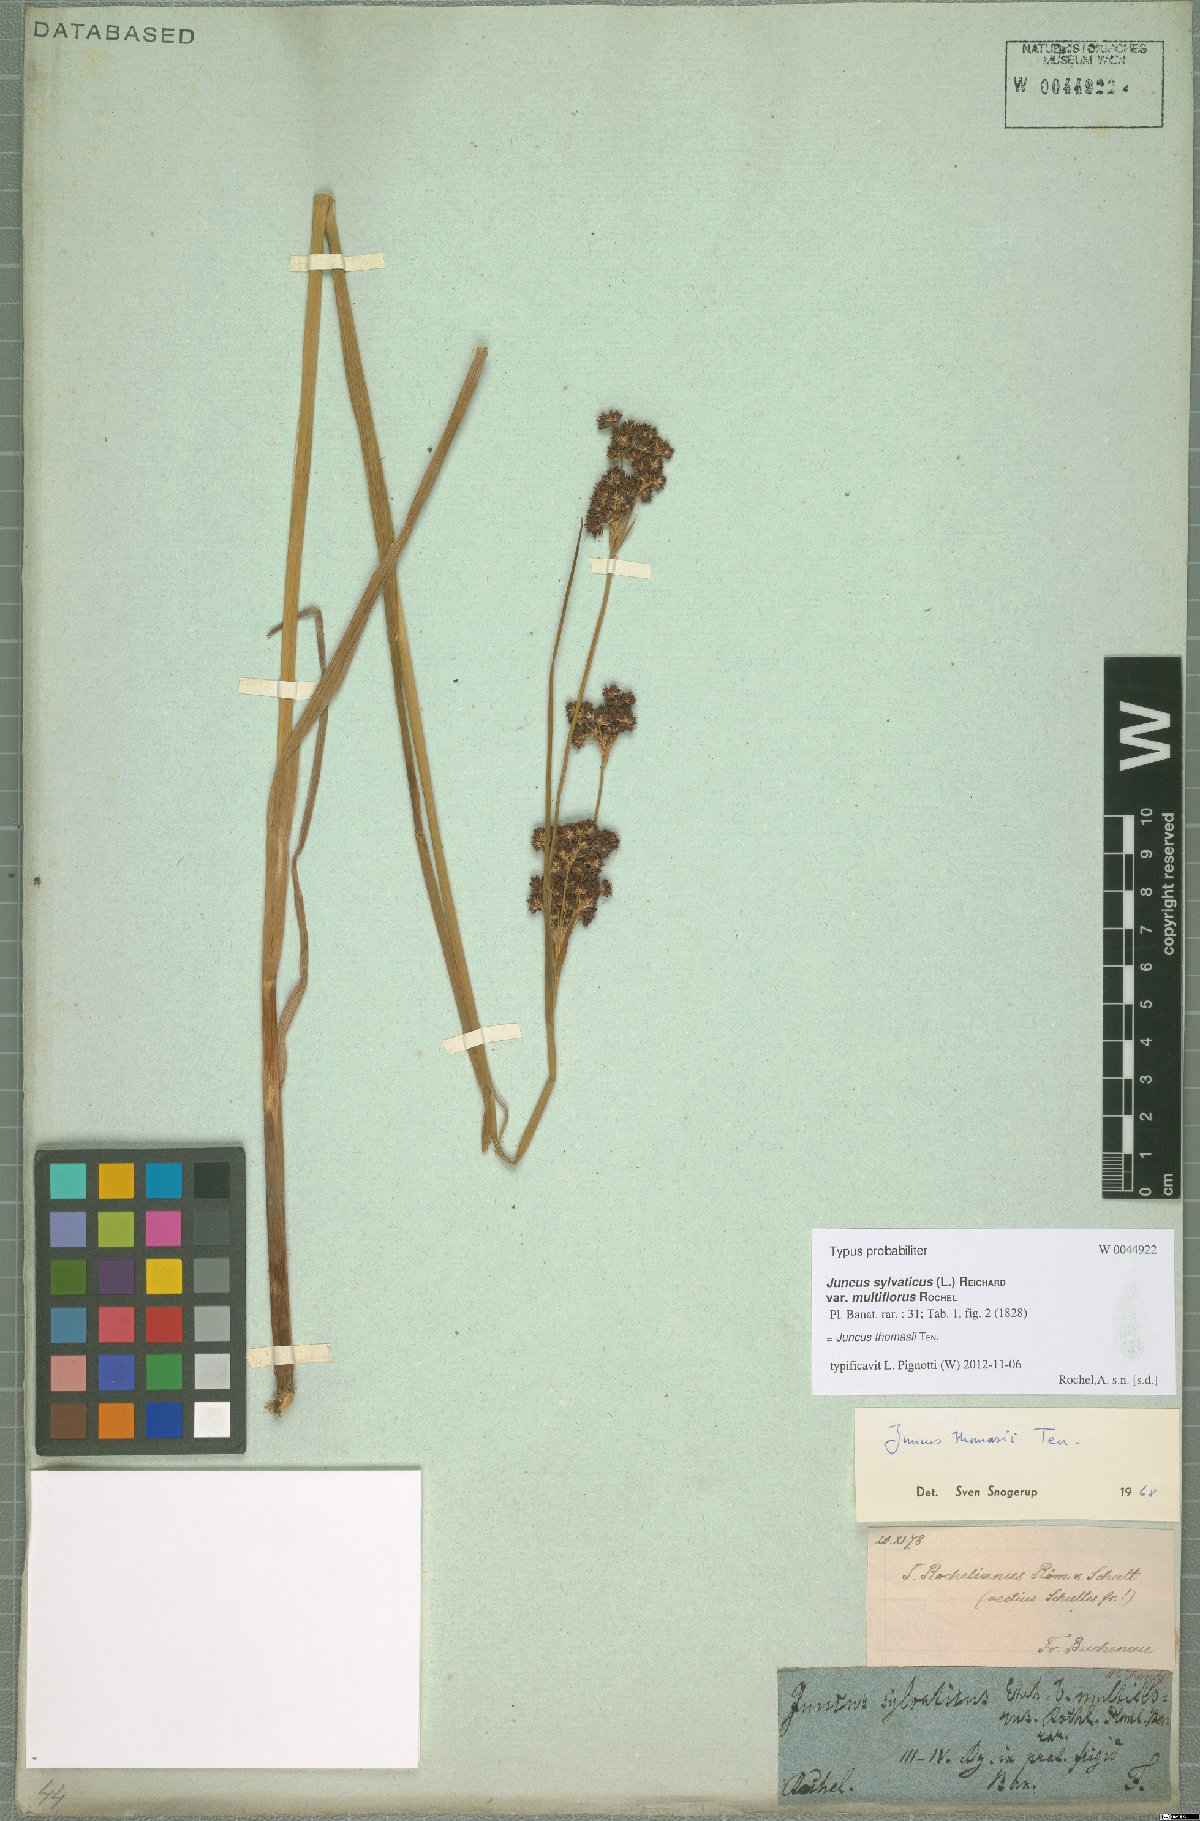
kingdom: Plantae
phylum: Tracheophyta
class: Liliopsida
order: Poales
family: Juncaceae
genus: Juncus
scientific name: Juncus thomasii
